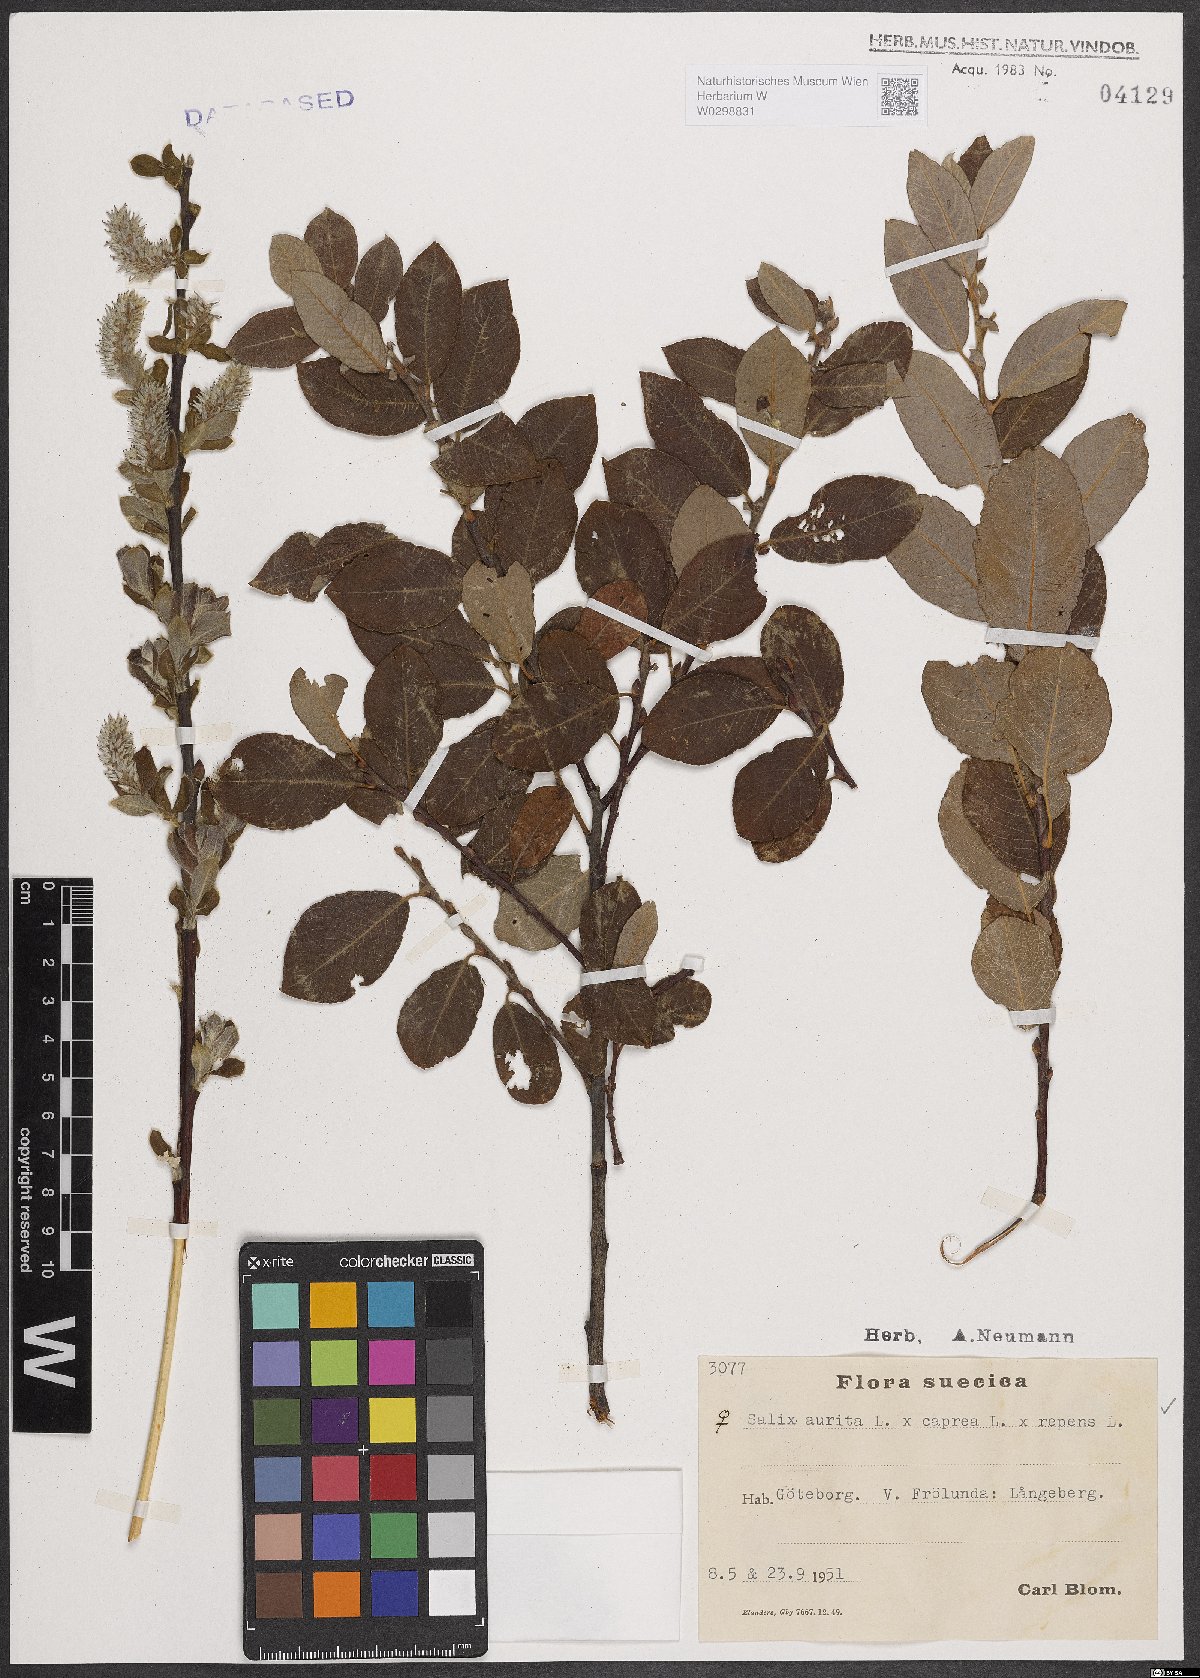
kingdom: Plantae
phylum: Tracheophyta
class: Magnoliopsida
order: Malpighiales
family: Salicaceae
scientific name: Salicaceae
